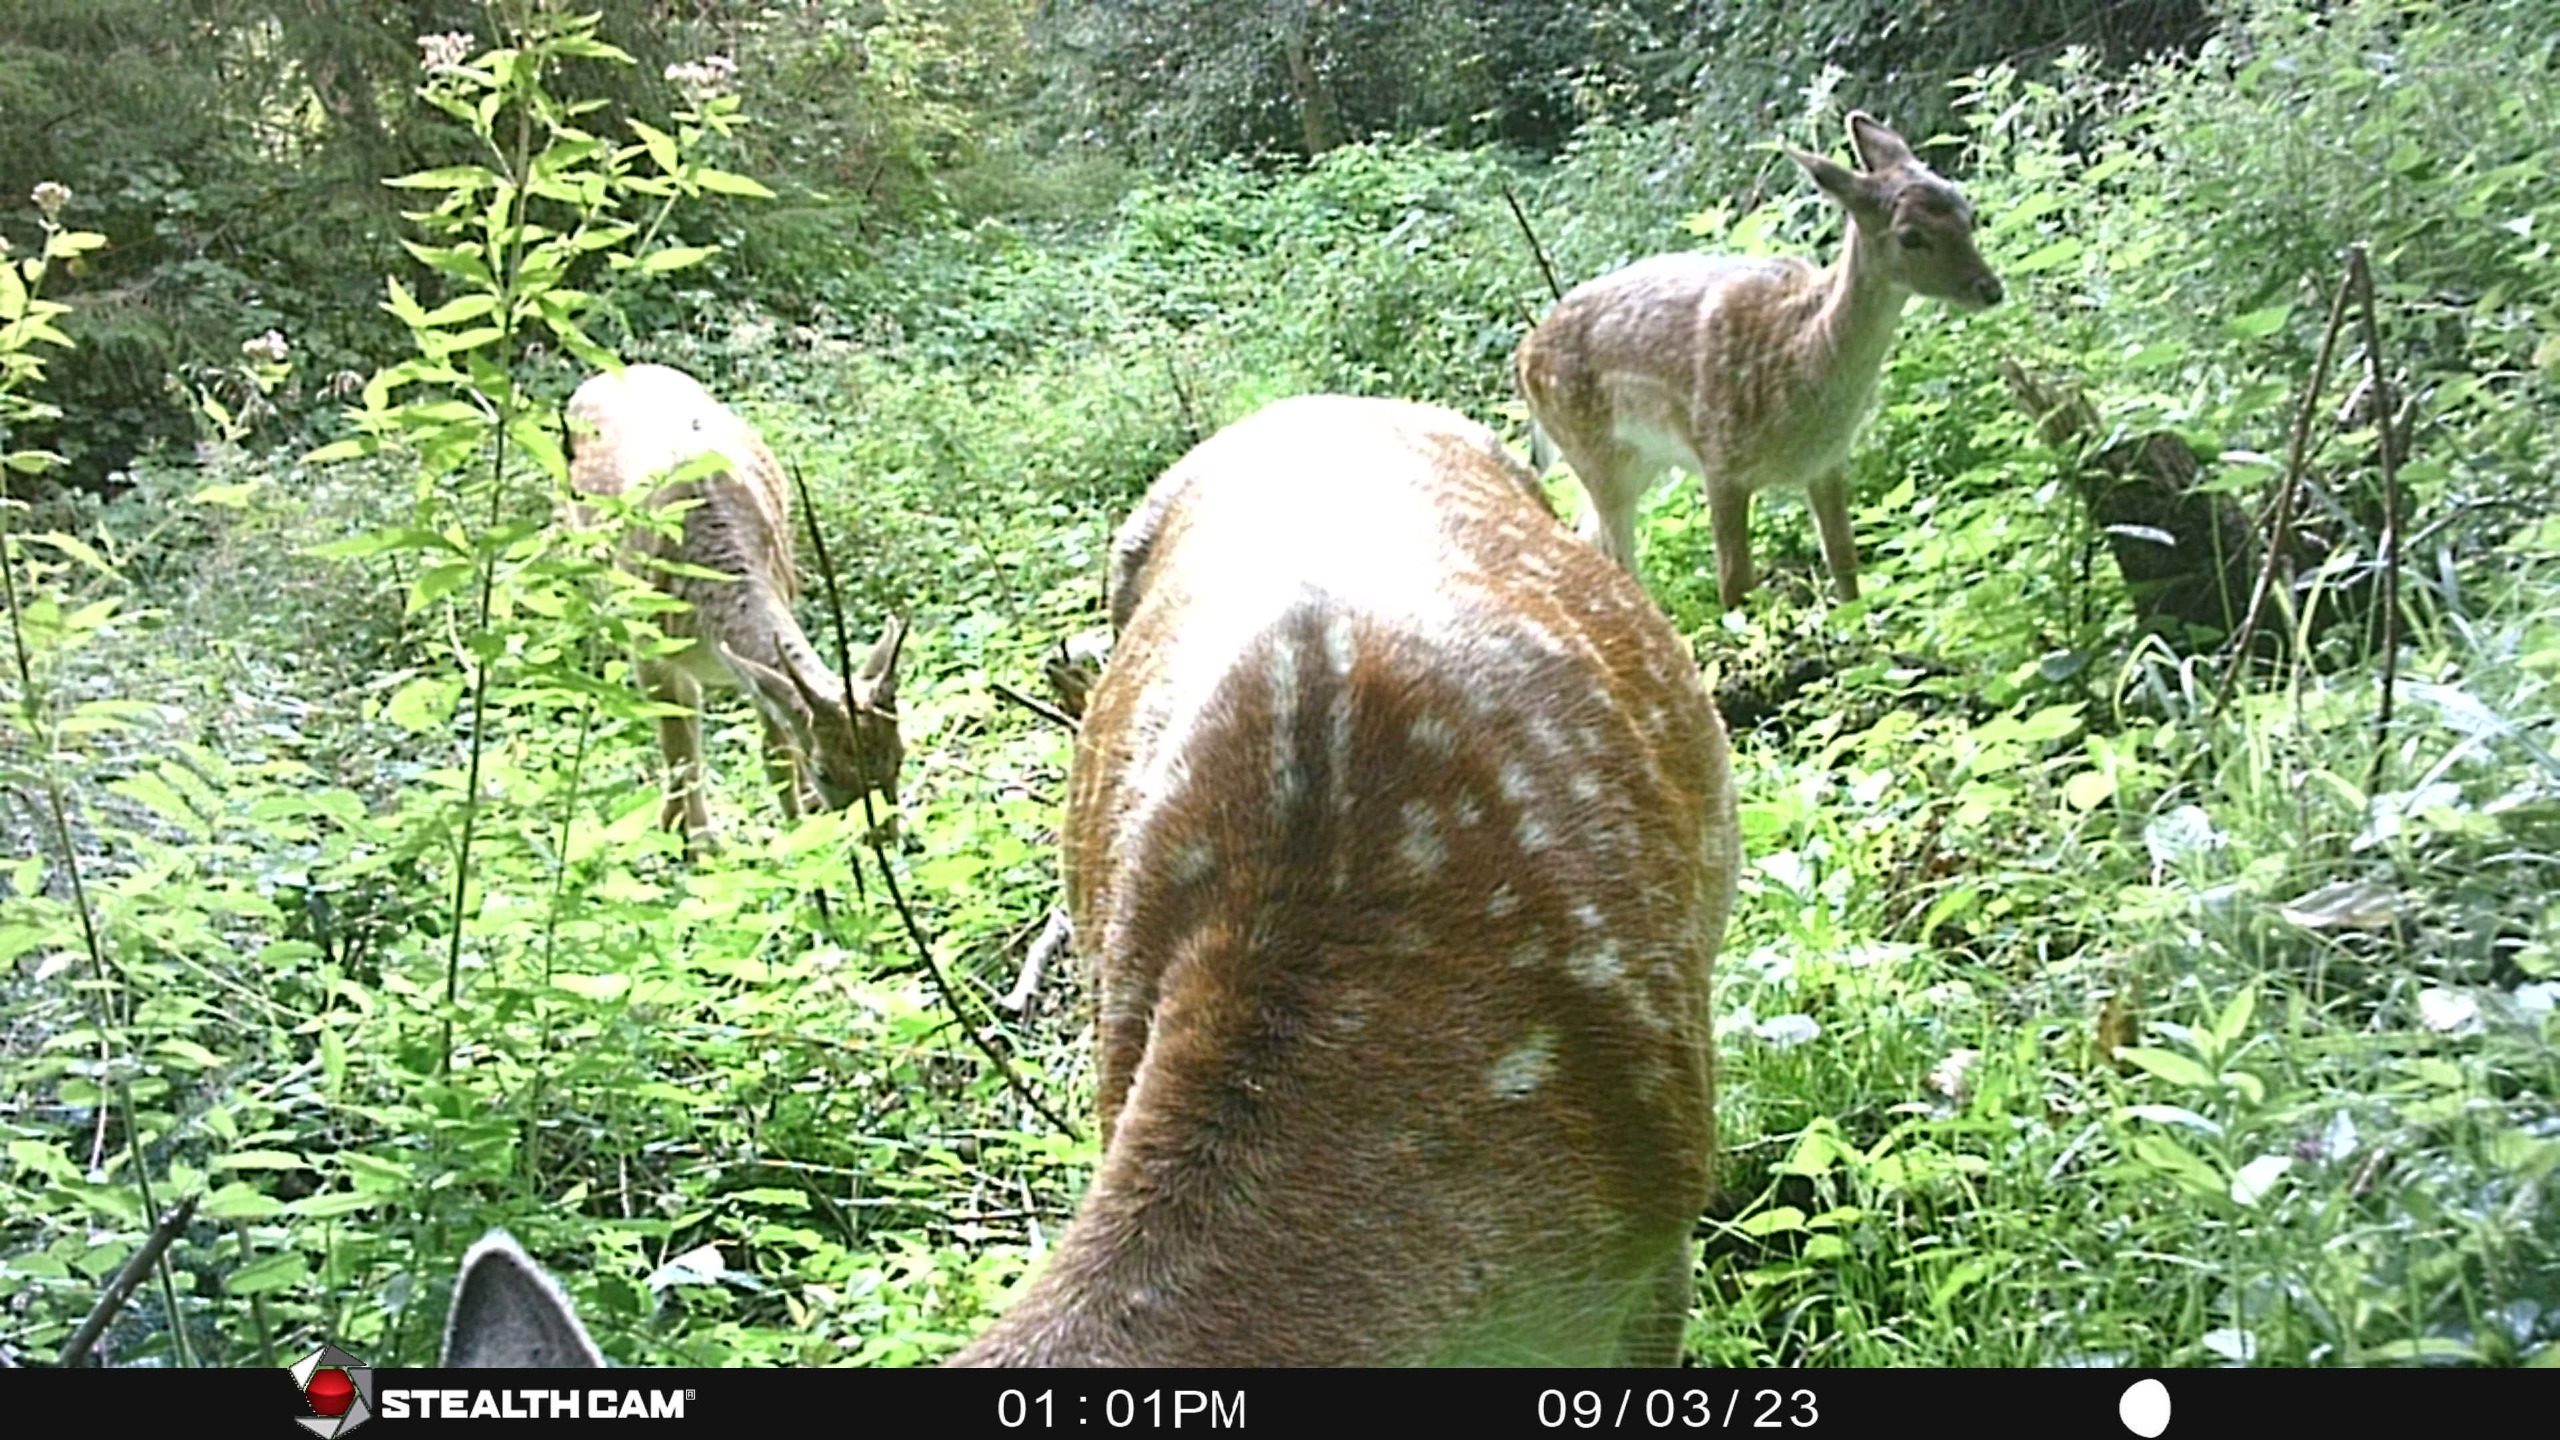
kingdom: Animalia
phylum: Chordata
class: Mammalia
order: Artiodactyla
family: Cervidae
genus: Dama
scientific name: Dama dama
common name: Dådyr
